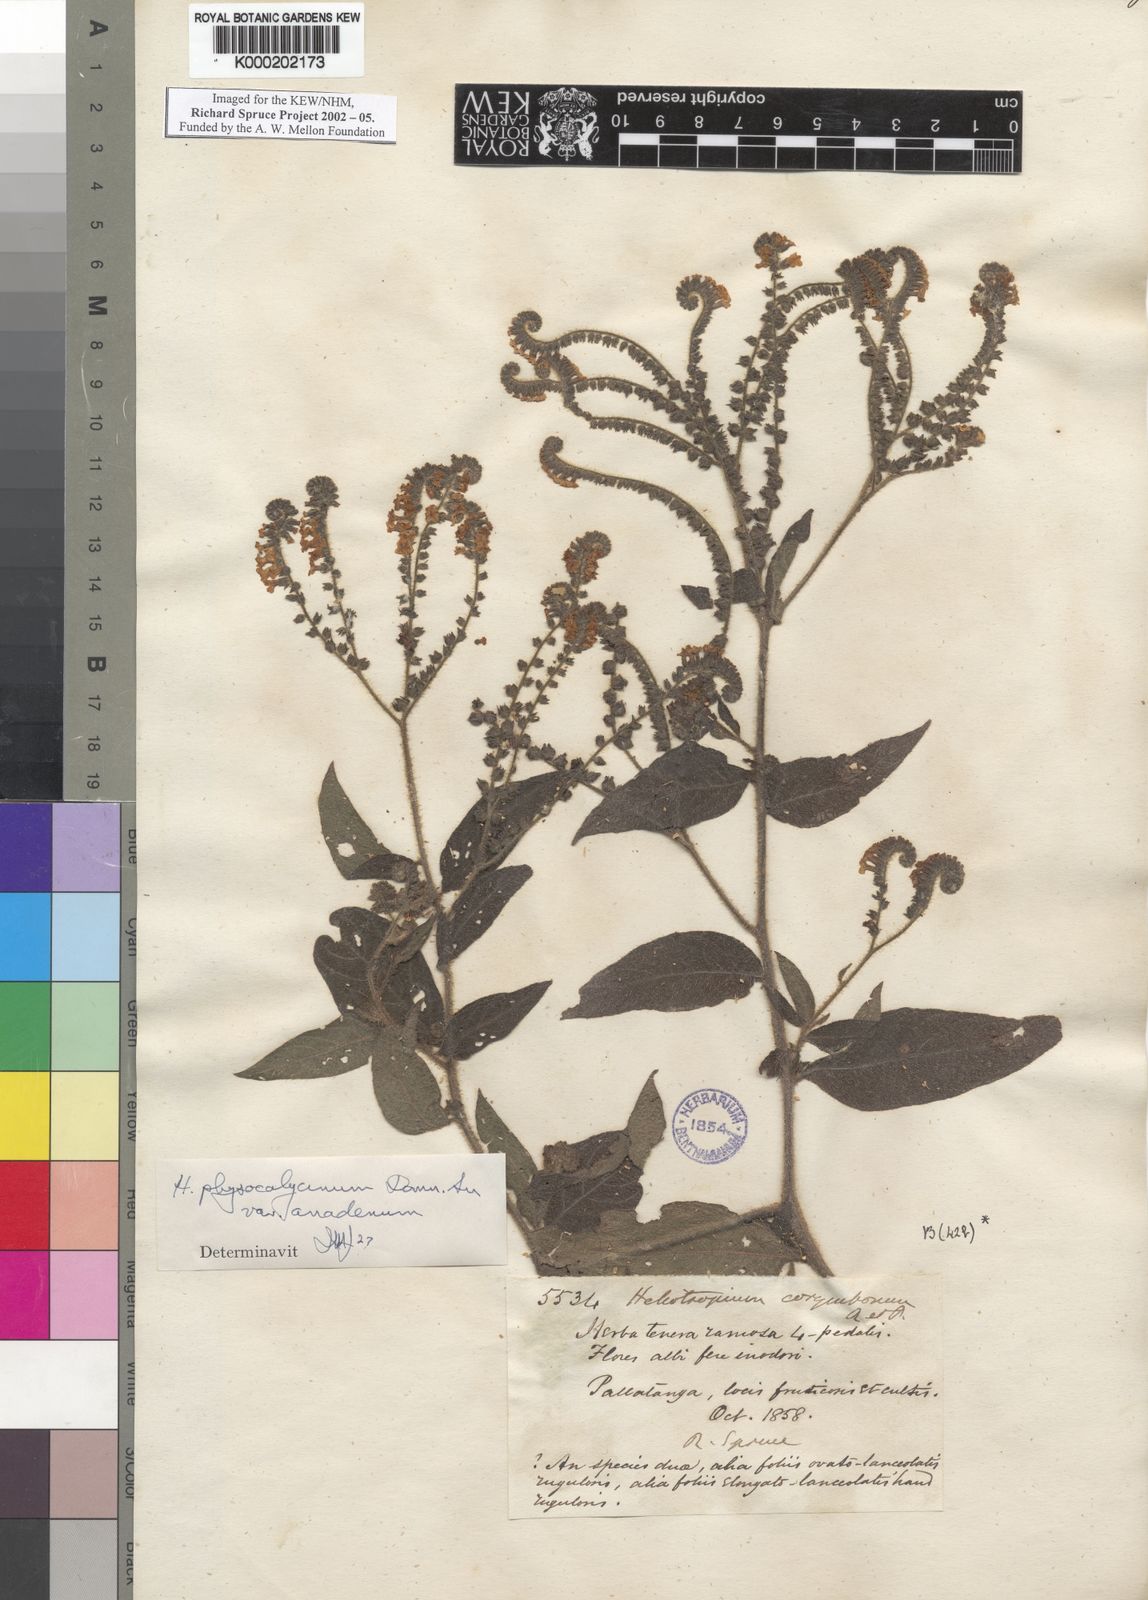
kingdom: Plantae
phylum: Tracheophyta
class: Magnoliopsida
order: Boraginales
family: Heliotropiaceae
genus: Heliotropium
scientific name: Heliotropium rufipilum
